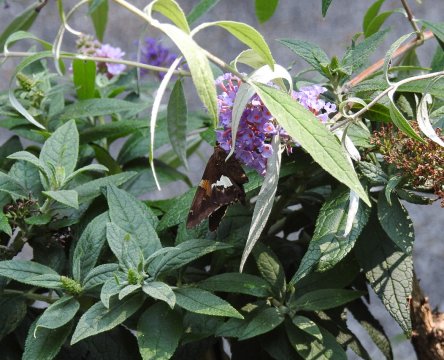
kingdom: Animalia
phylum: Arthropoda
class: Insecta
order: Lepidoptera
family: Hesperiidae
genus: Epargyreus
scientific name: Epargyreus clarus
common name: Silver-spotted Skipper
